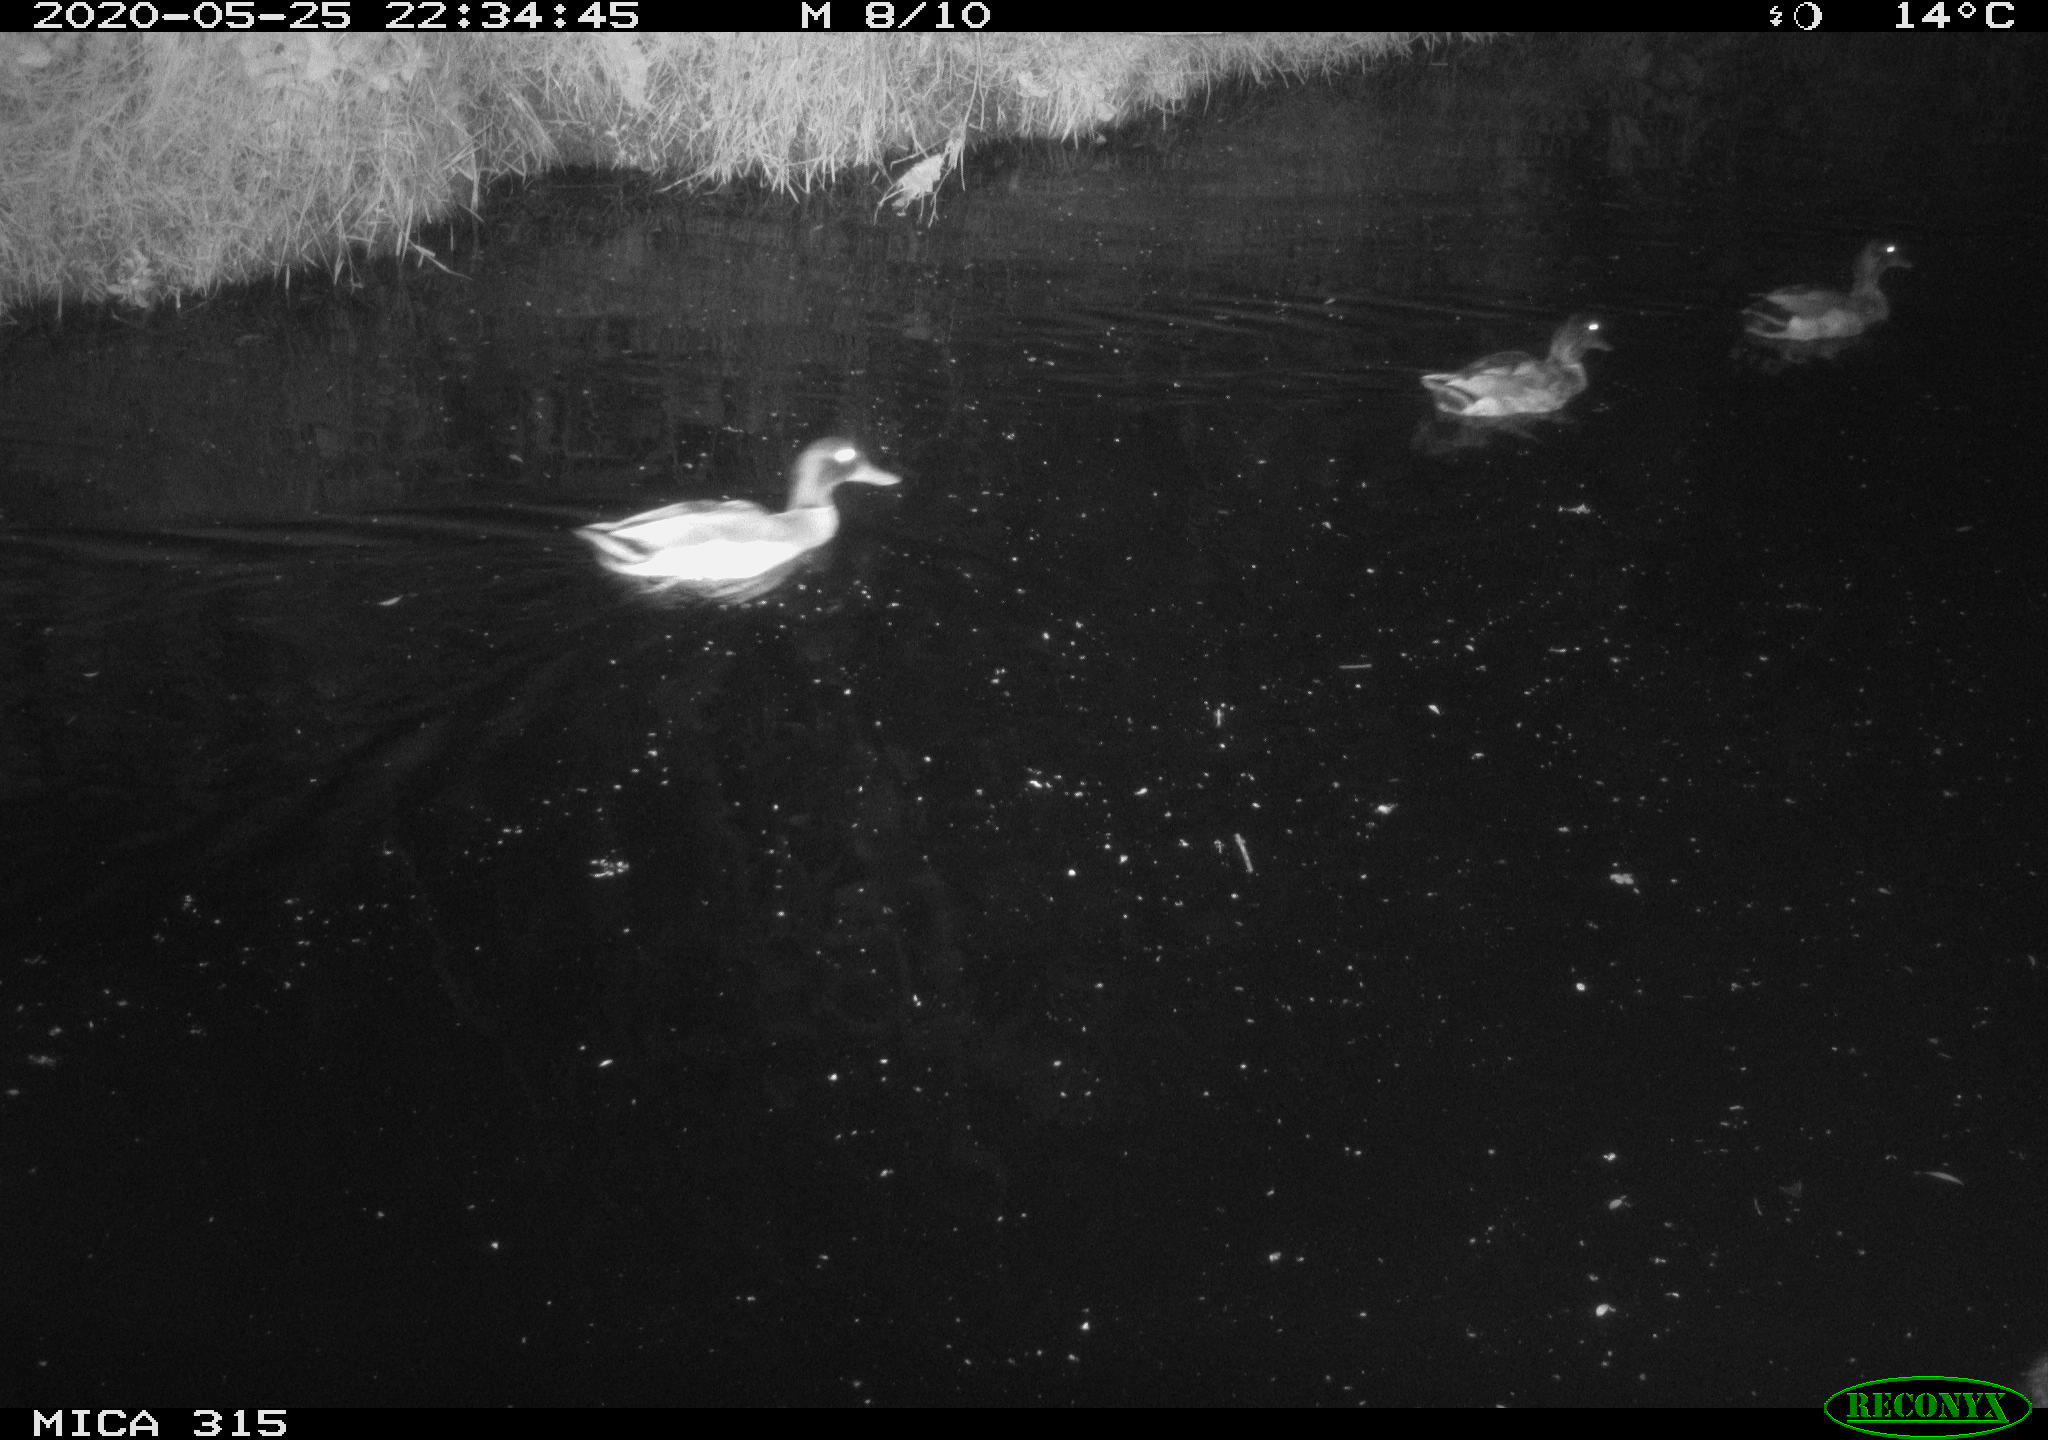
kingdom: Animalia
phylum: Chordata
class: Aves
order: Anseriformes
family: Anatidae
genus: Anas
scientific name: Anas platyrhynchos
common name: Mallard
